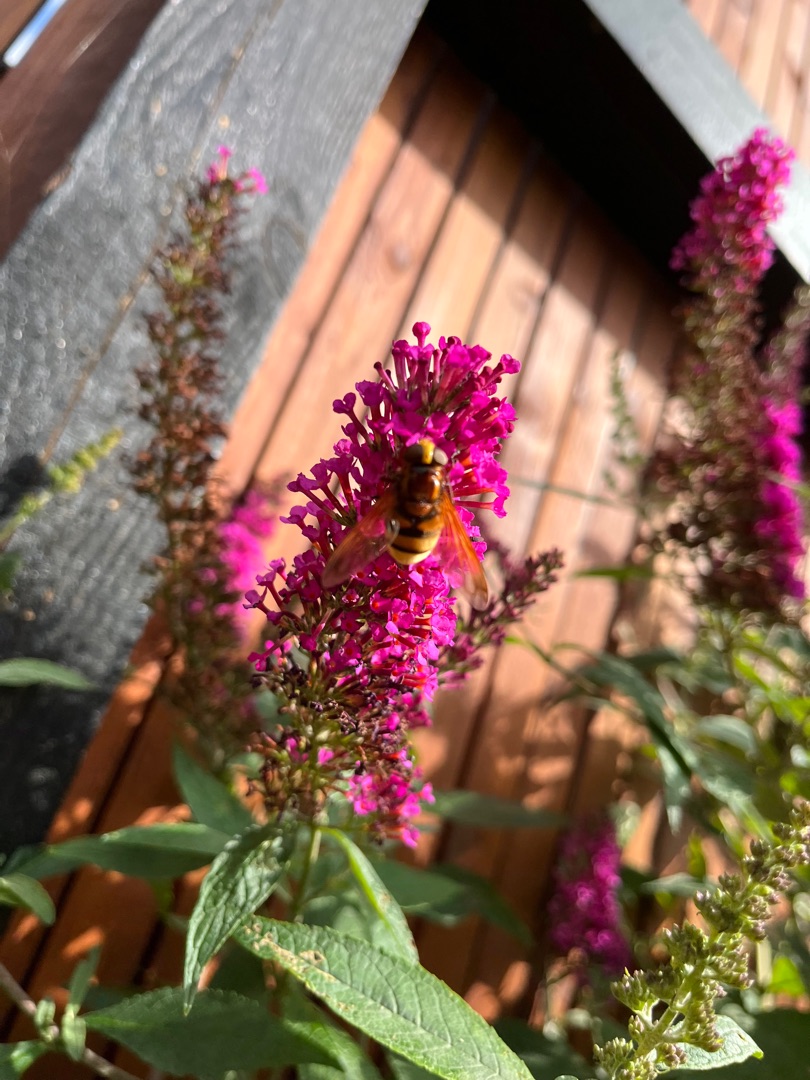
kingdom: Animalia
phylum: Arthropoda
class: Insecta
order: Diptera
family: Syrphidae
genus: Volucella
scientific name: Volucella zonaria
